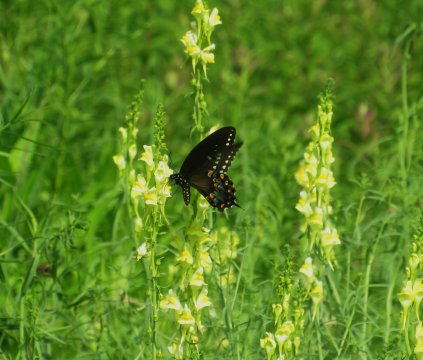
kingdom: Animalia
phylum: Arthropoda
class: Insecta
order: Lepidoptera
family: Papilionidae
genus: Pterourus
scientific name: Pterourus troilus
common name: Spicebush Swallowtail
